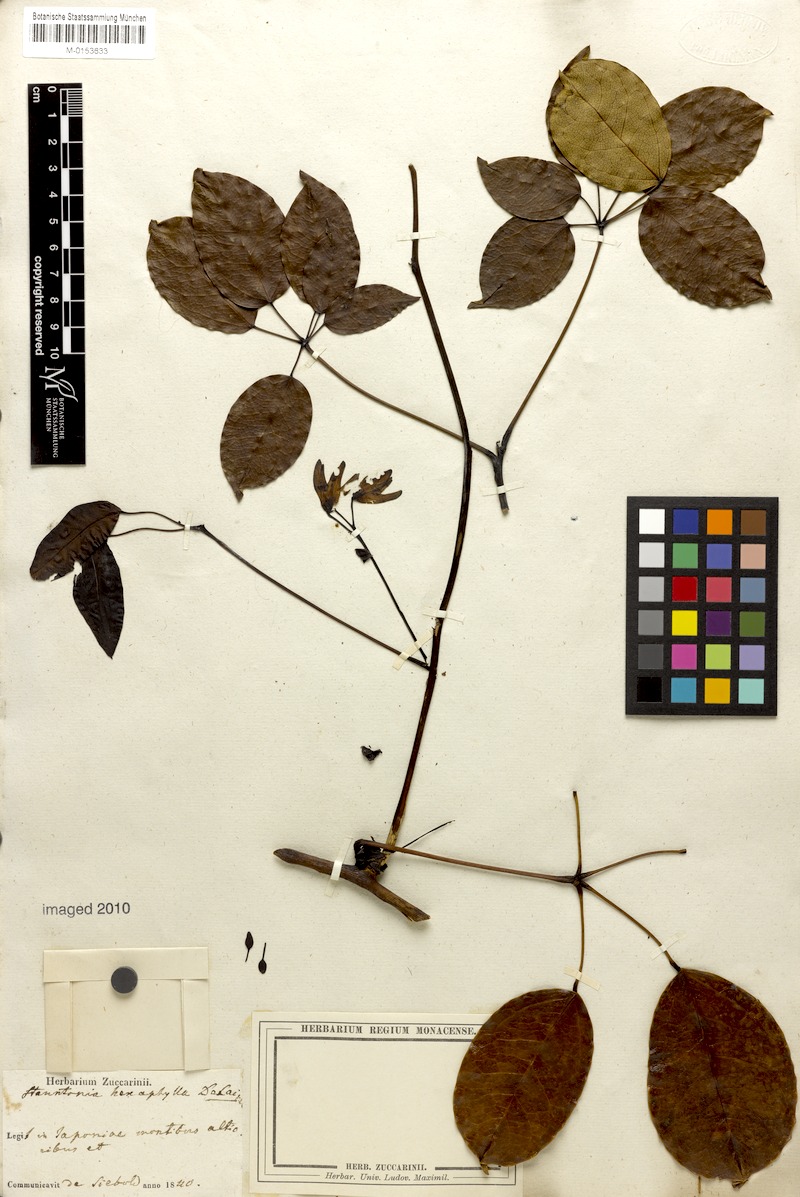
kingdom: Plantae
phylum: Tracheophyta
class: Magnoliopsida
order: Ranunculales
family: Lardizabalaceae
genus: Stauntonia
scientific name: Stauntonia hexaphylla
